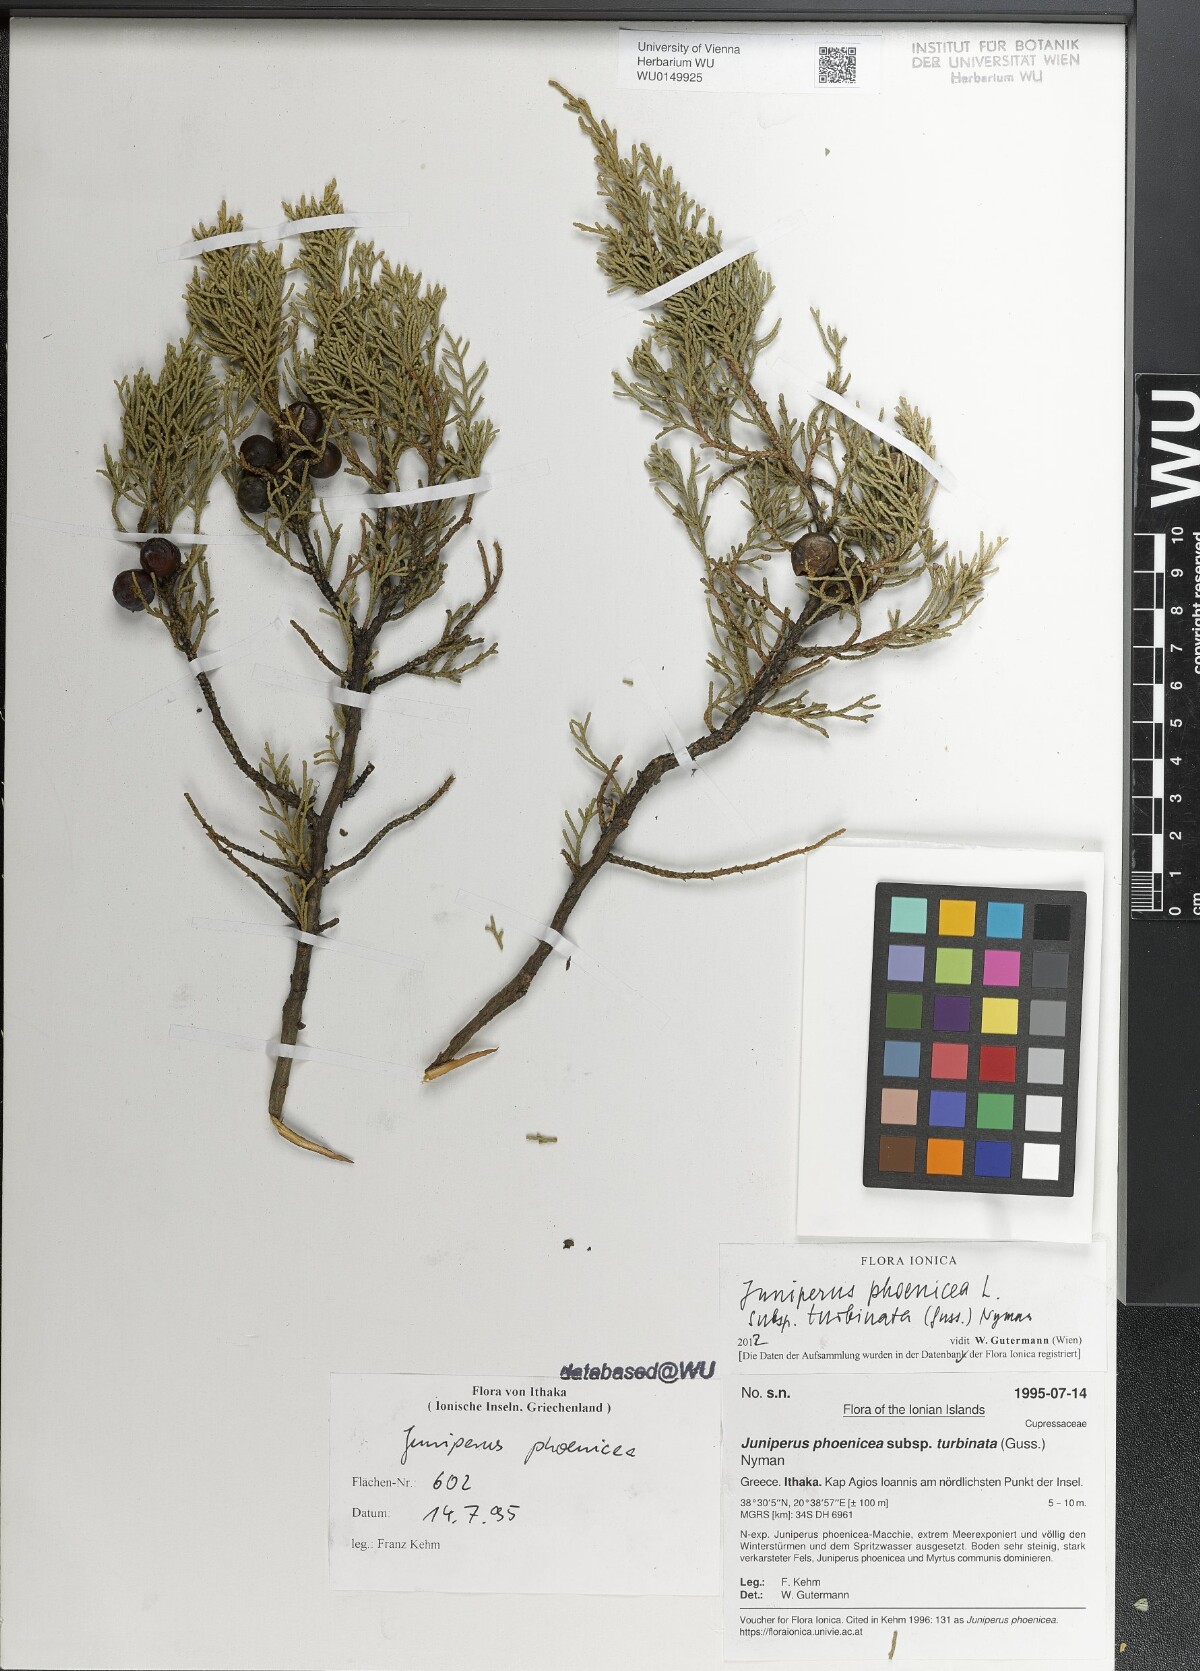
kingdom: Plantae
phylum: Tracheophyta
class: Pinopsida
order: Pinales
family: Cupressaceae
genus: Juniperus
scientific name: Juniperus phoenicea
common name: Phoenician juniper
